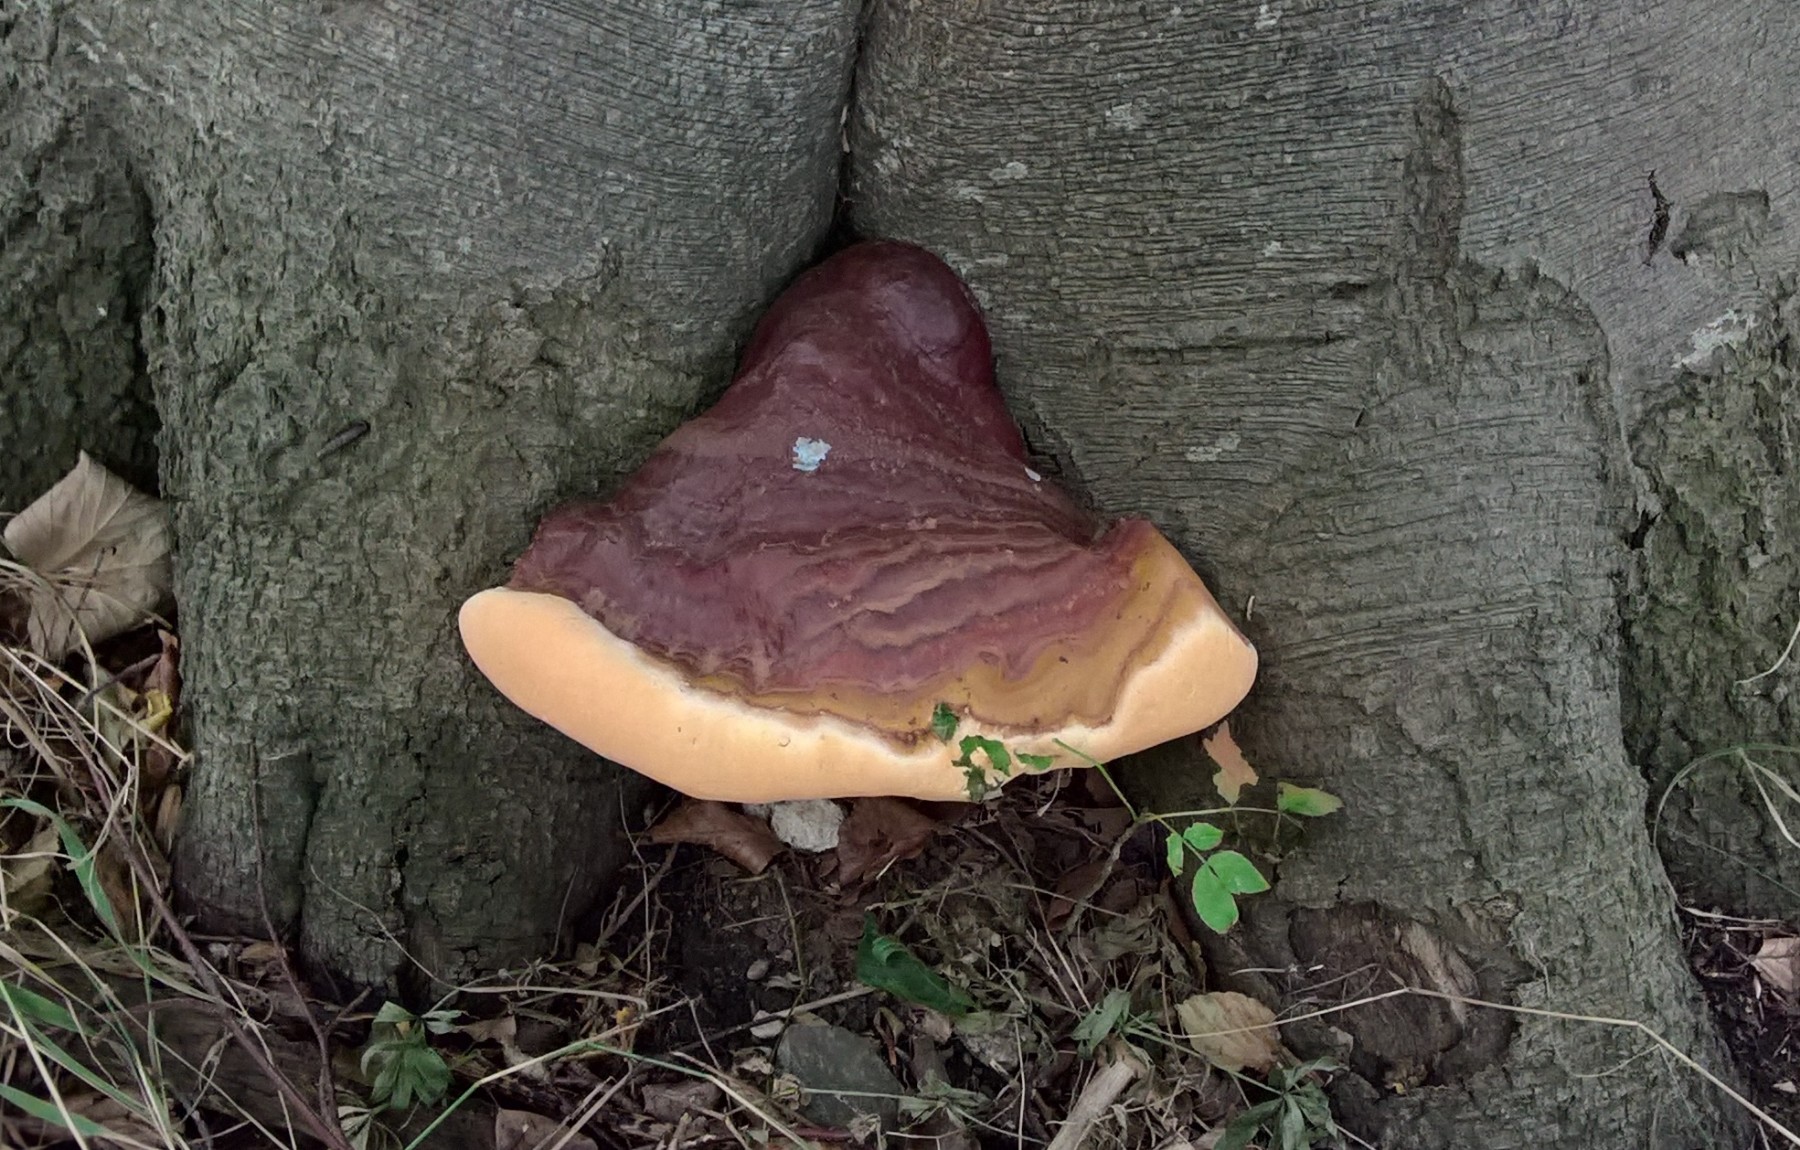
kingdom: Fungi
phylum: Basidiomycota
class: Agaricomycetes
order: Polyporales
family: Polyporaceae
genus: Ganoderma
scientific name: Ganoderma resinaceum
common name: gyldenbrun lakporesvamp
